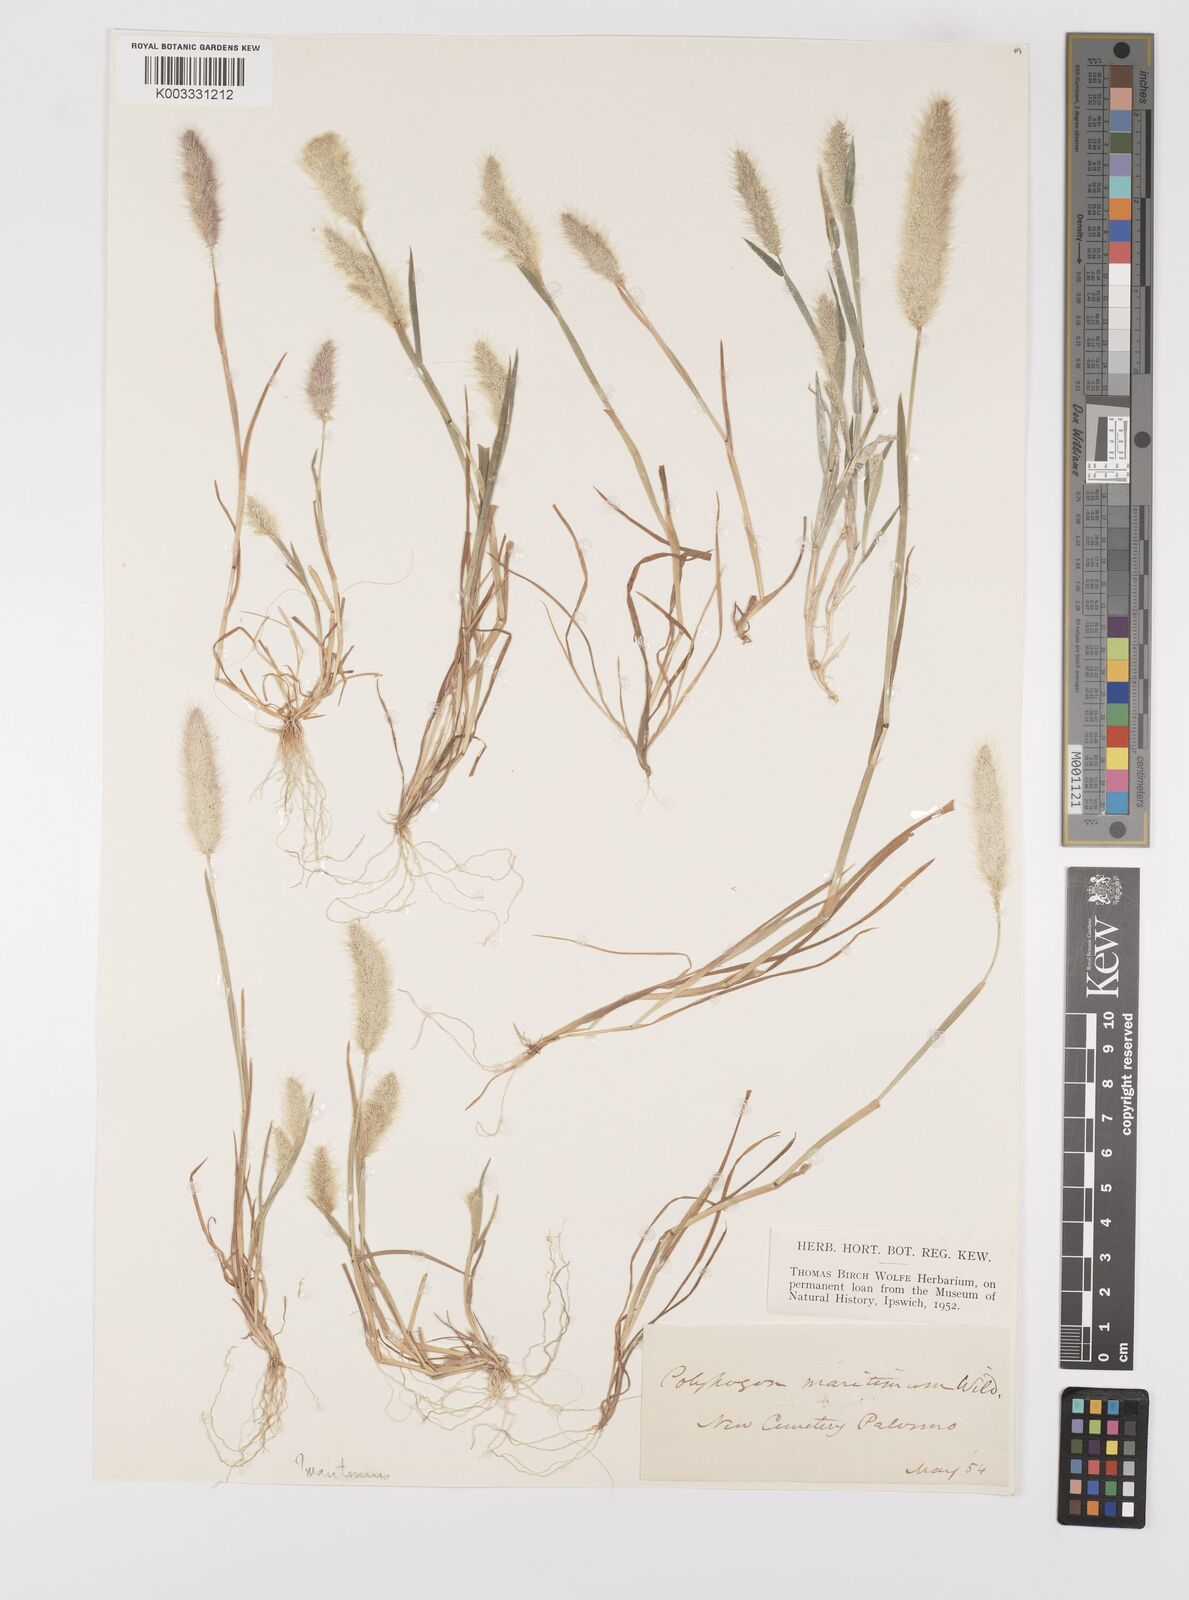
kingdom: Plantae
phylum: Tracheophyta
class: Liliopsida
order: Poales
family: Poaceae
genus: Polypogon
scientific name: Polypogon maritimus
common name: Mediterranean rabbitsfoot grass
